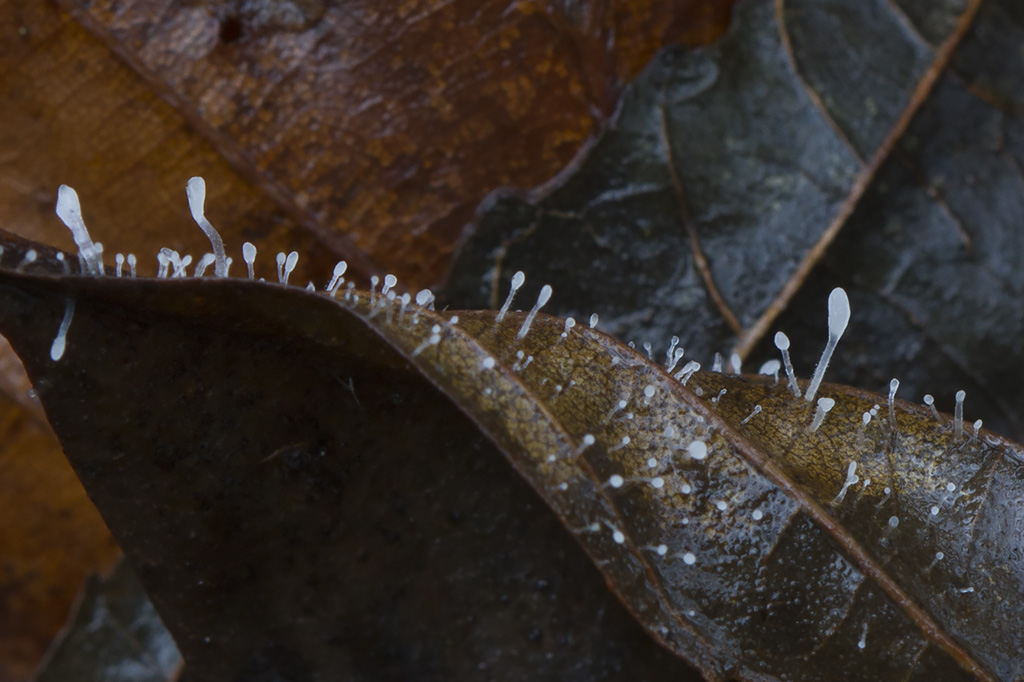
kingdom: Fungi
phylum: Basidiomycota
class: Agaricomycetes
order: Agaricales
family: Typhulaceae
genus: Typhula
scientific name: Typhula setipes
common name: liden trådkølle
